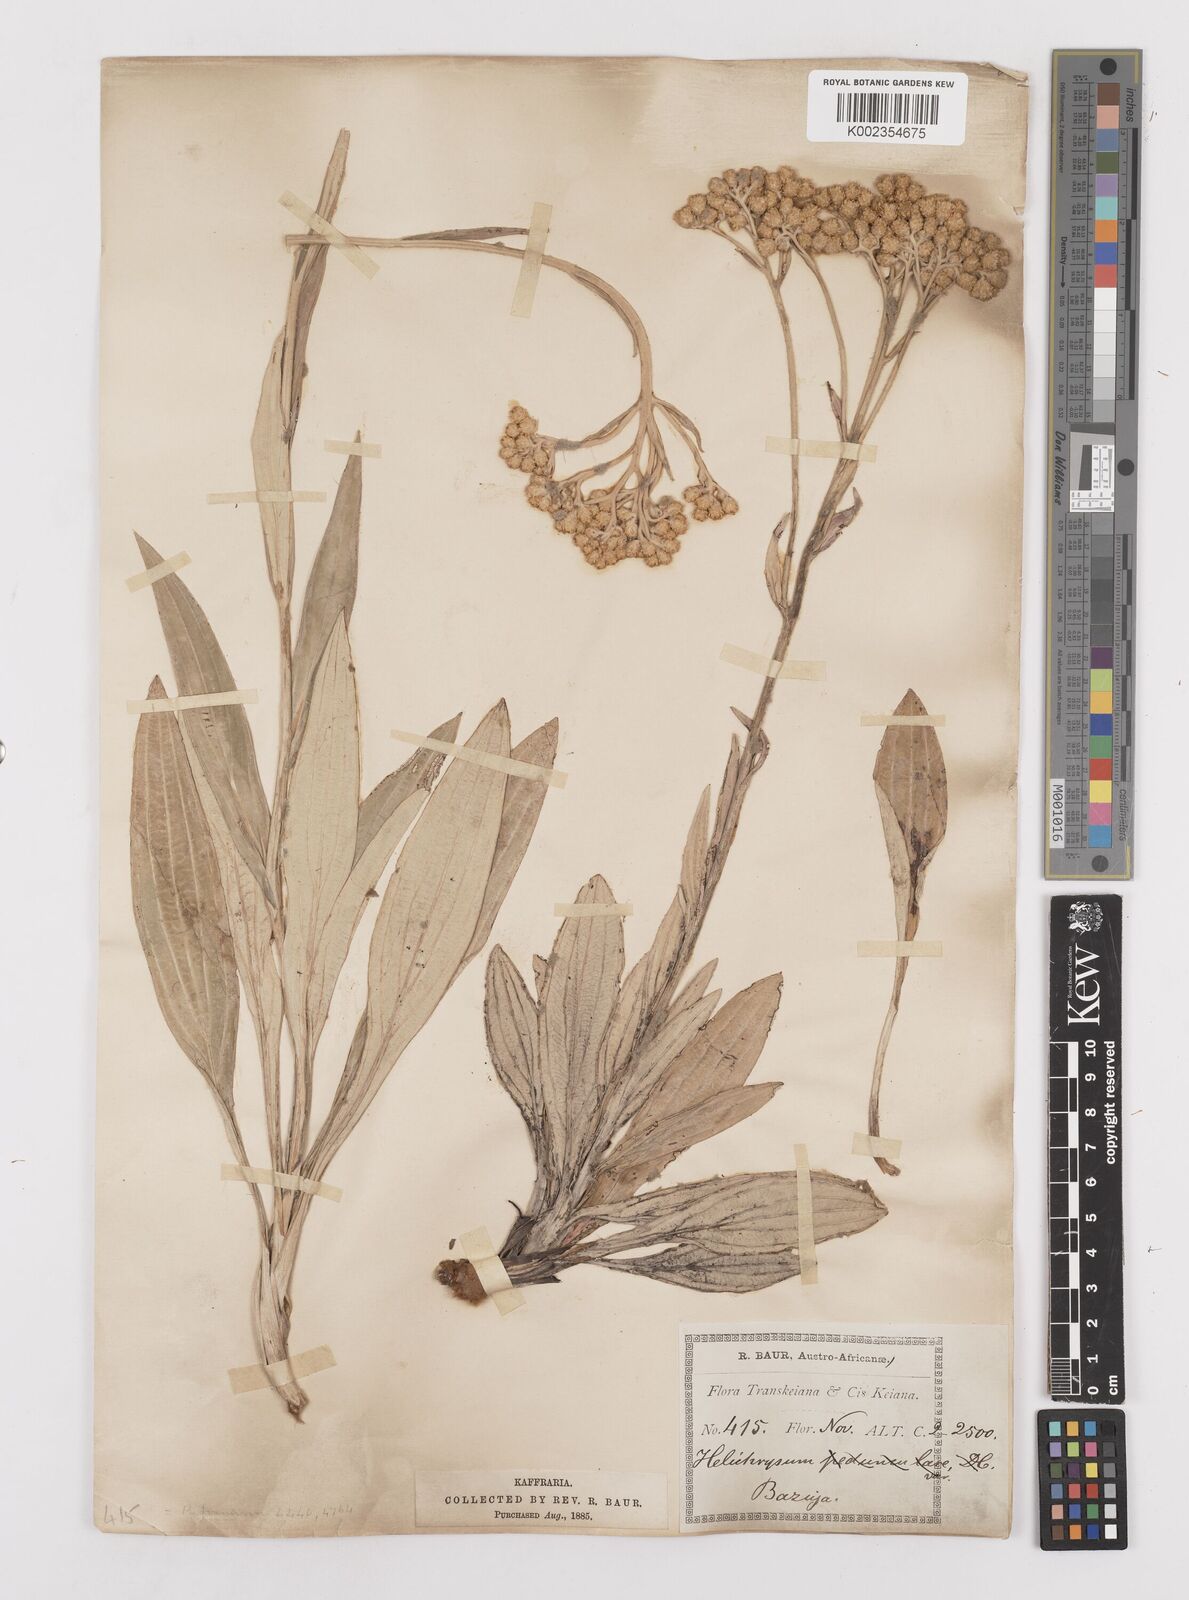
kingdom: Plantae
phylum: Tracheophyta
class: Magnoliopsida
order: Asterales
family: Asteraceae
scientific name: Asteraceae
